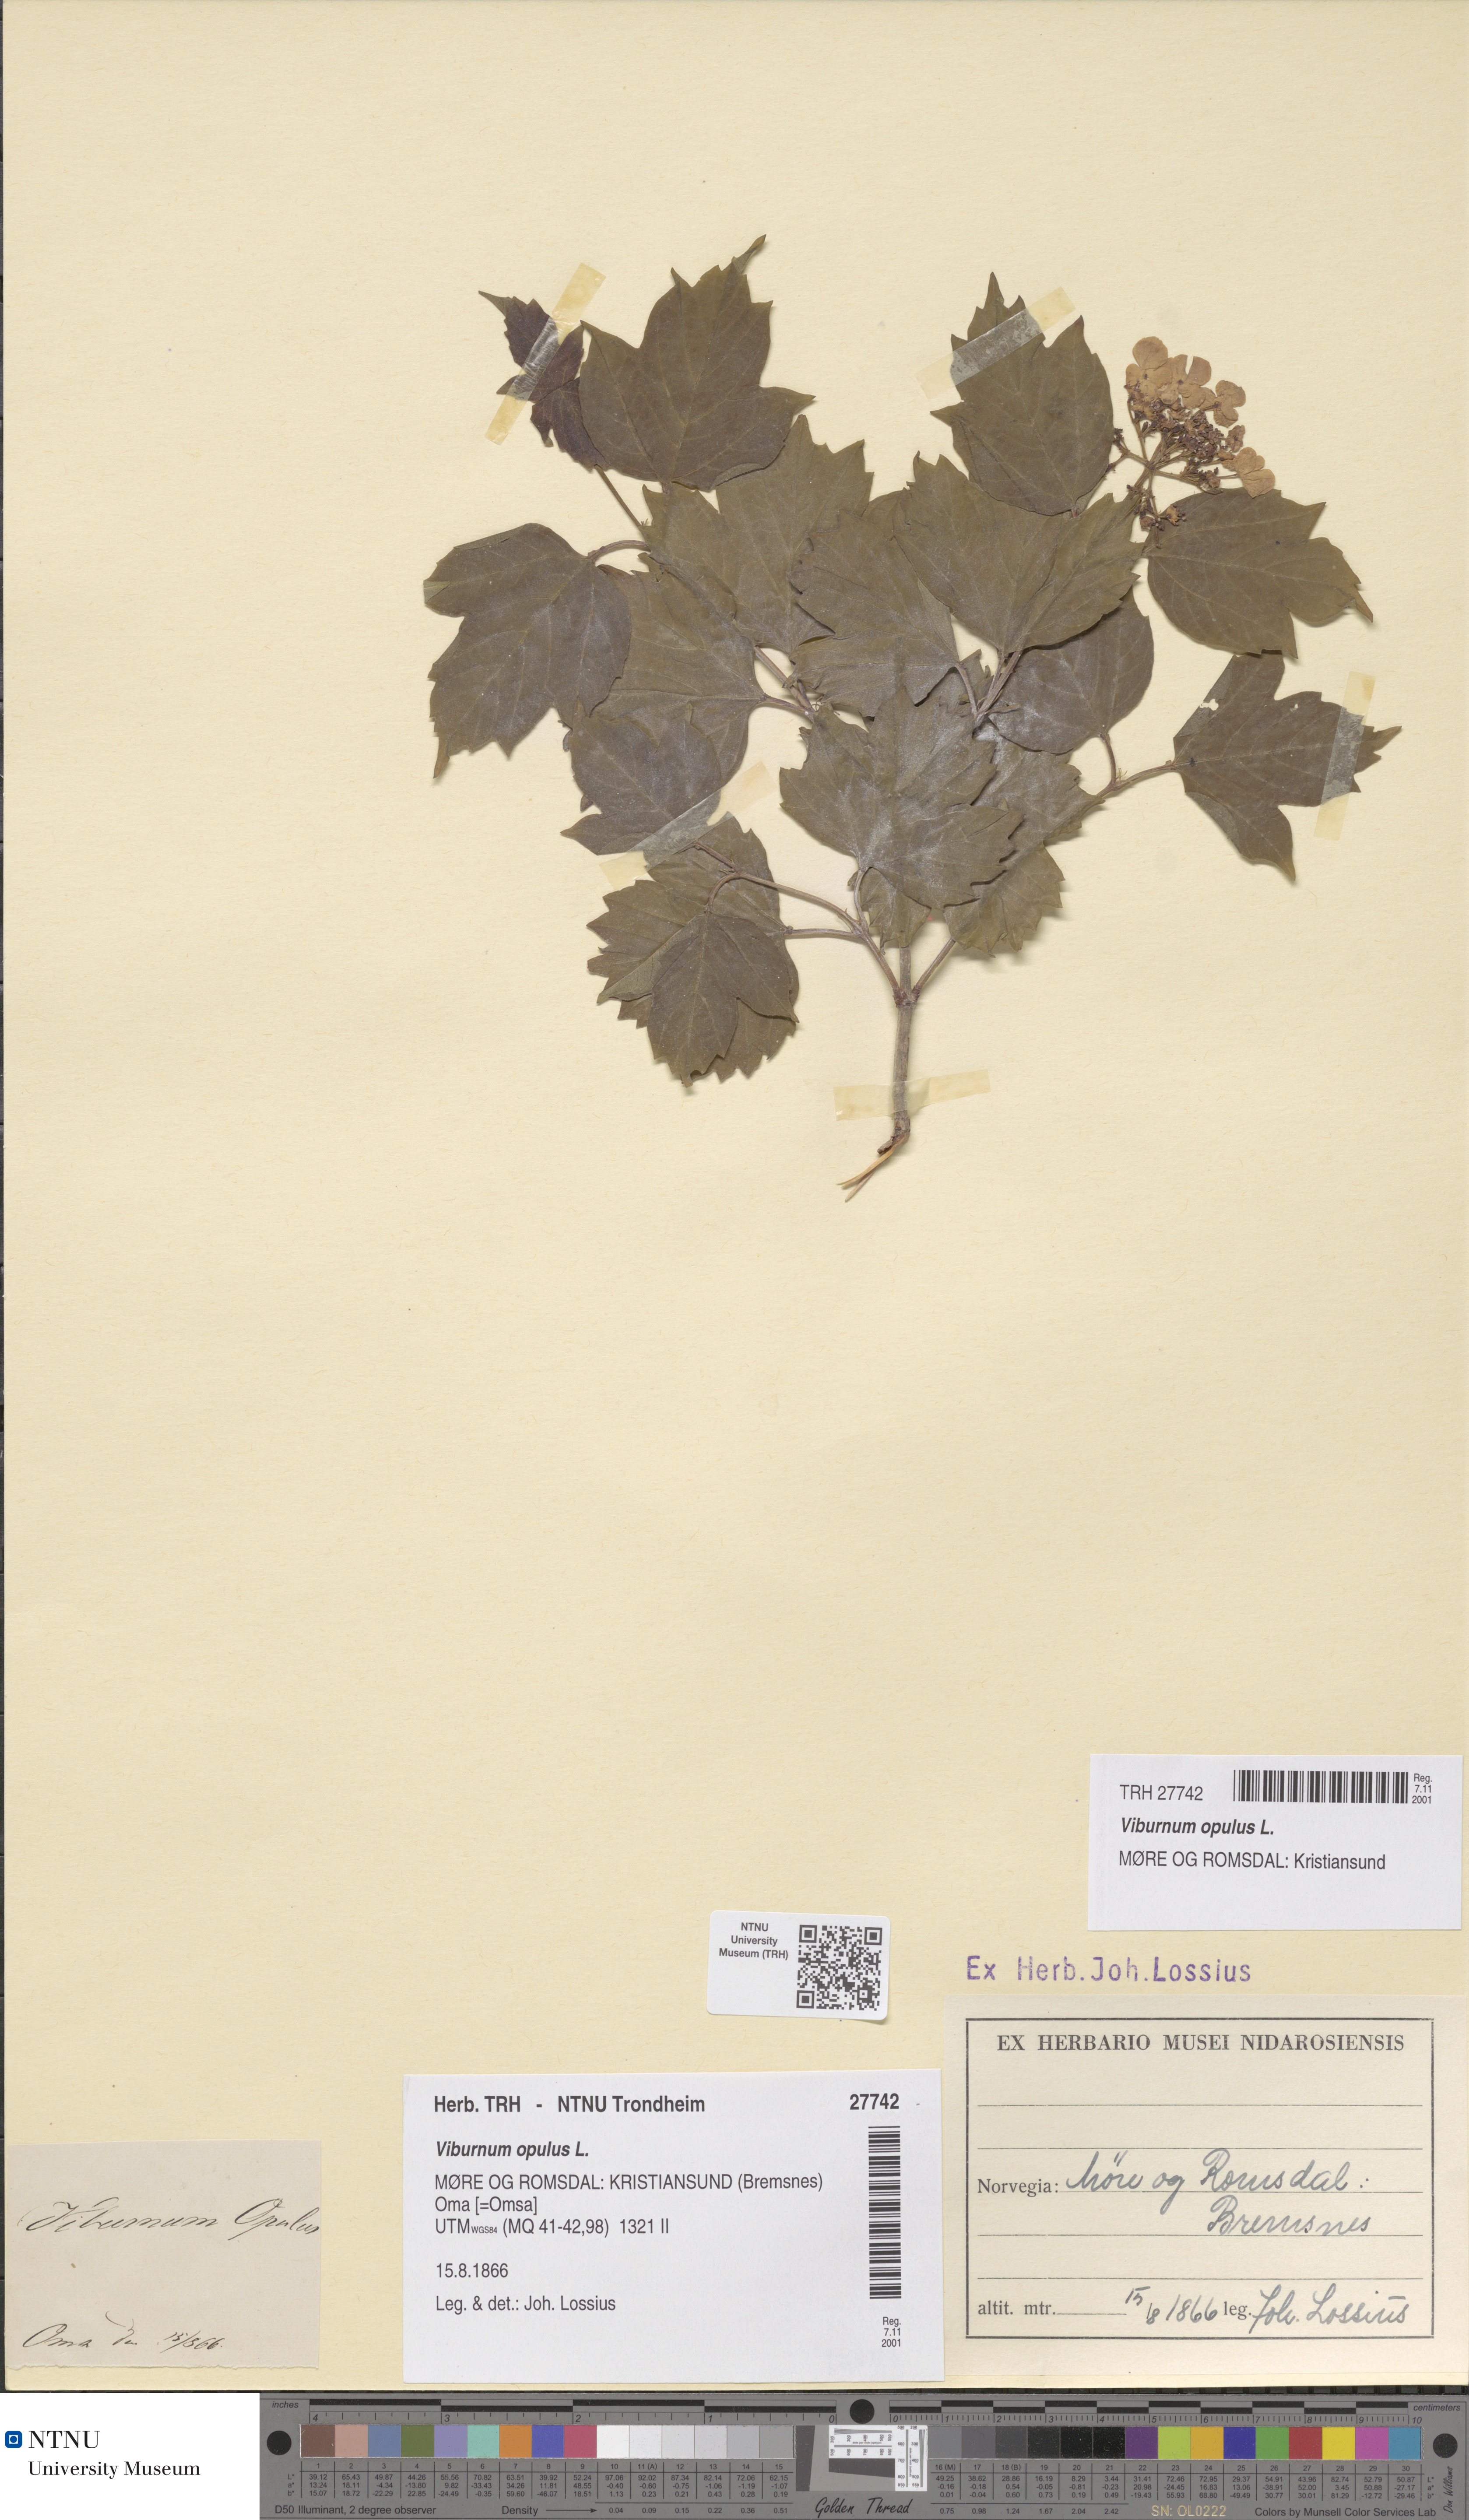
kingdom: Plantae
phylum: Tracheophyta
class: Magnoliopsida
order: Dipsacales
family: Viburnaceae
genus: Viburnum
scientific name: Viburnum opulus
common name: Guelder-rose
